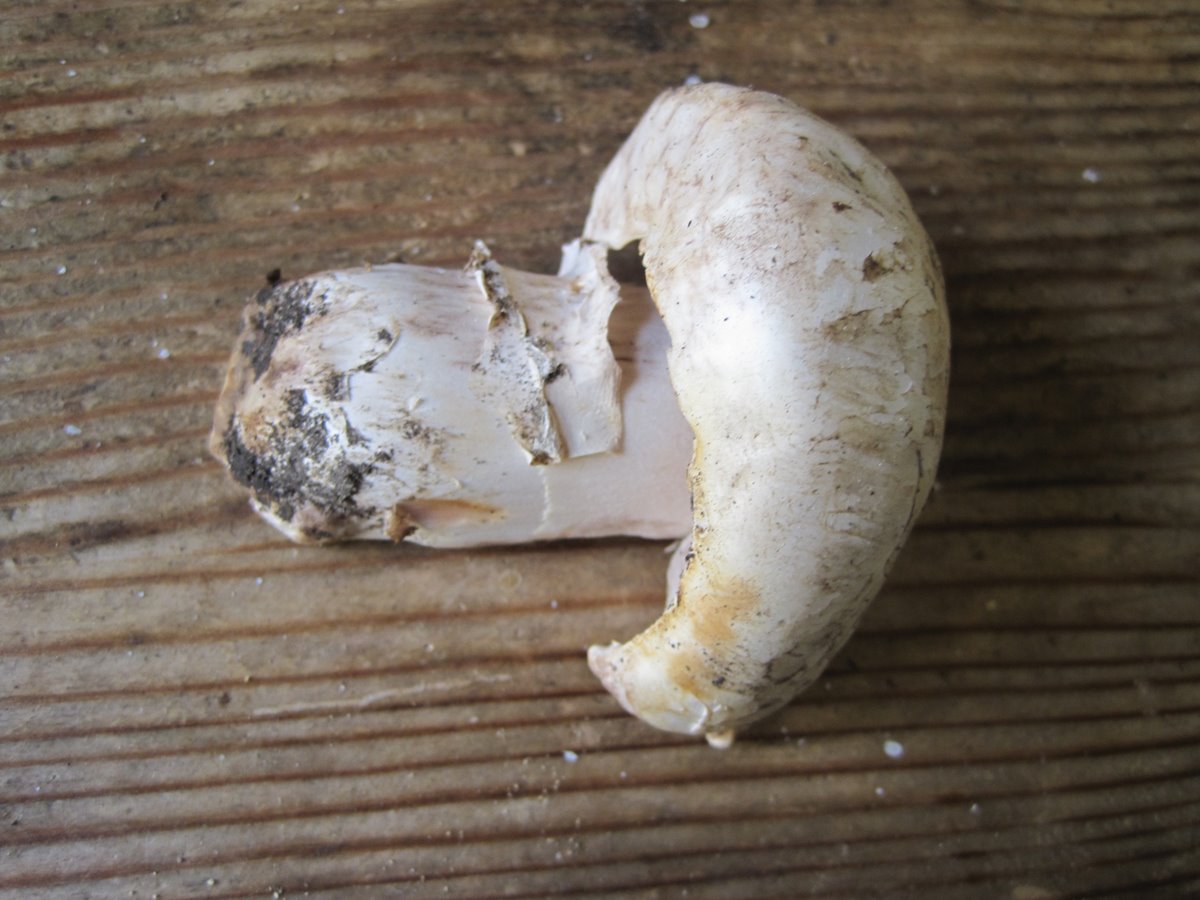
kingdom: Fungi
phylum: Basidiomycota
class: Agaricomycetes
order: Agaricales
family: Agaricaceae
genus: Agaricus
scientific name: Agaricus bitorquis
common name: vej-champignon
